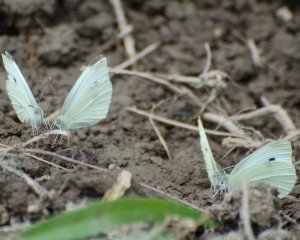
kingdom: Animalia
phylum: Arthropoda
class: Insecta
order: Lepidoptera
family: Pieridae
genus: Pieris
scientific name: Pieris rapae
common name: Cabbage White
